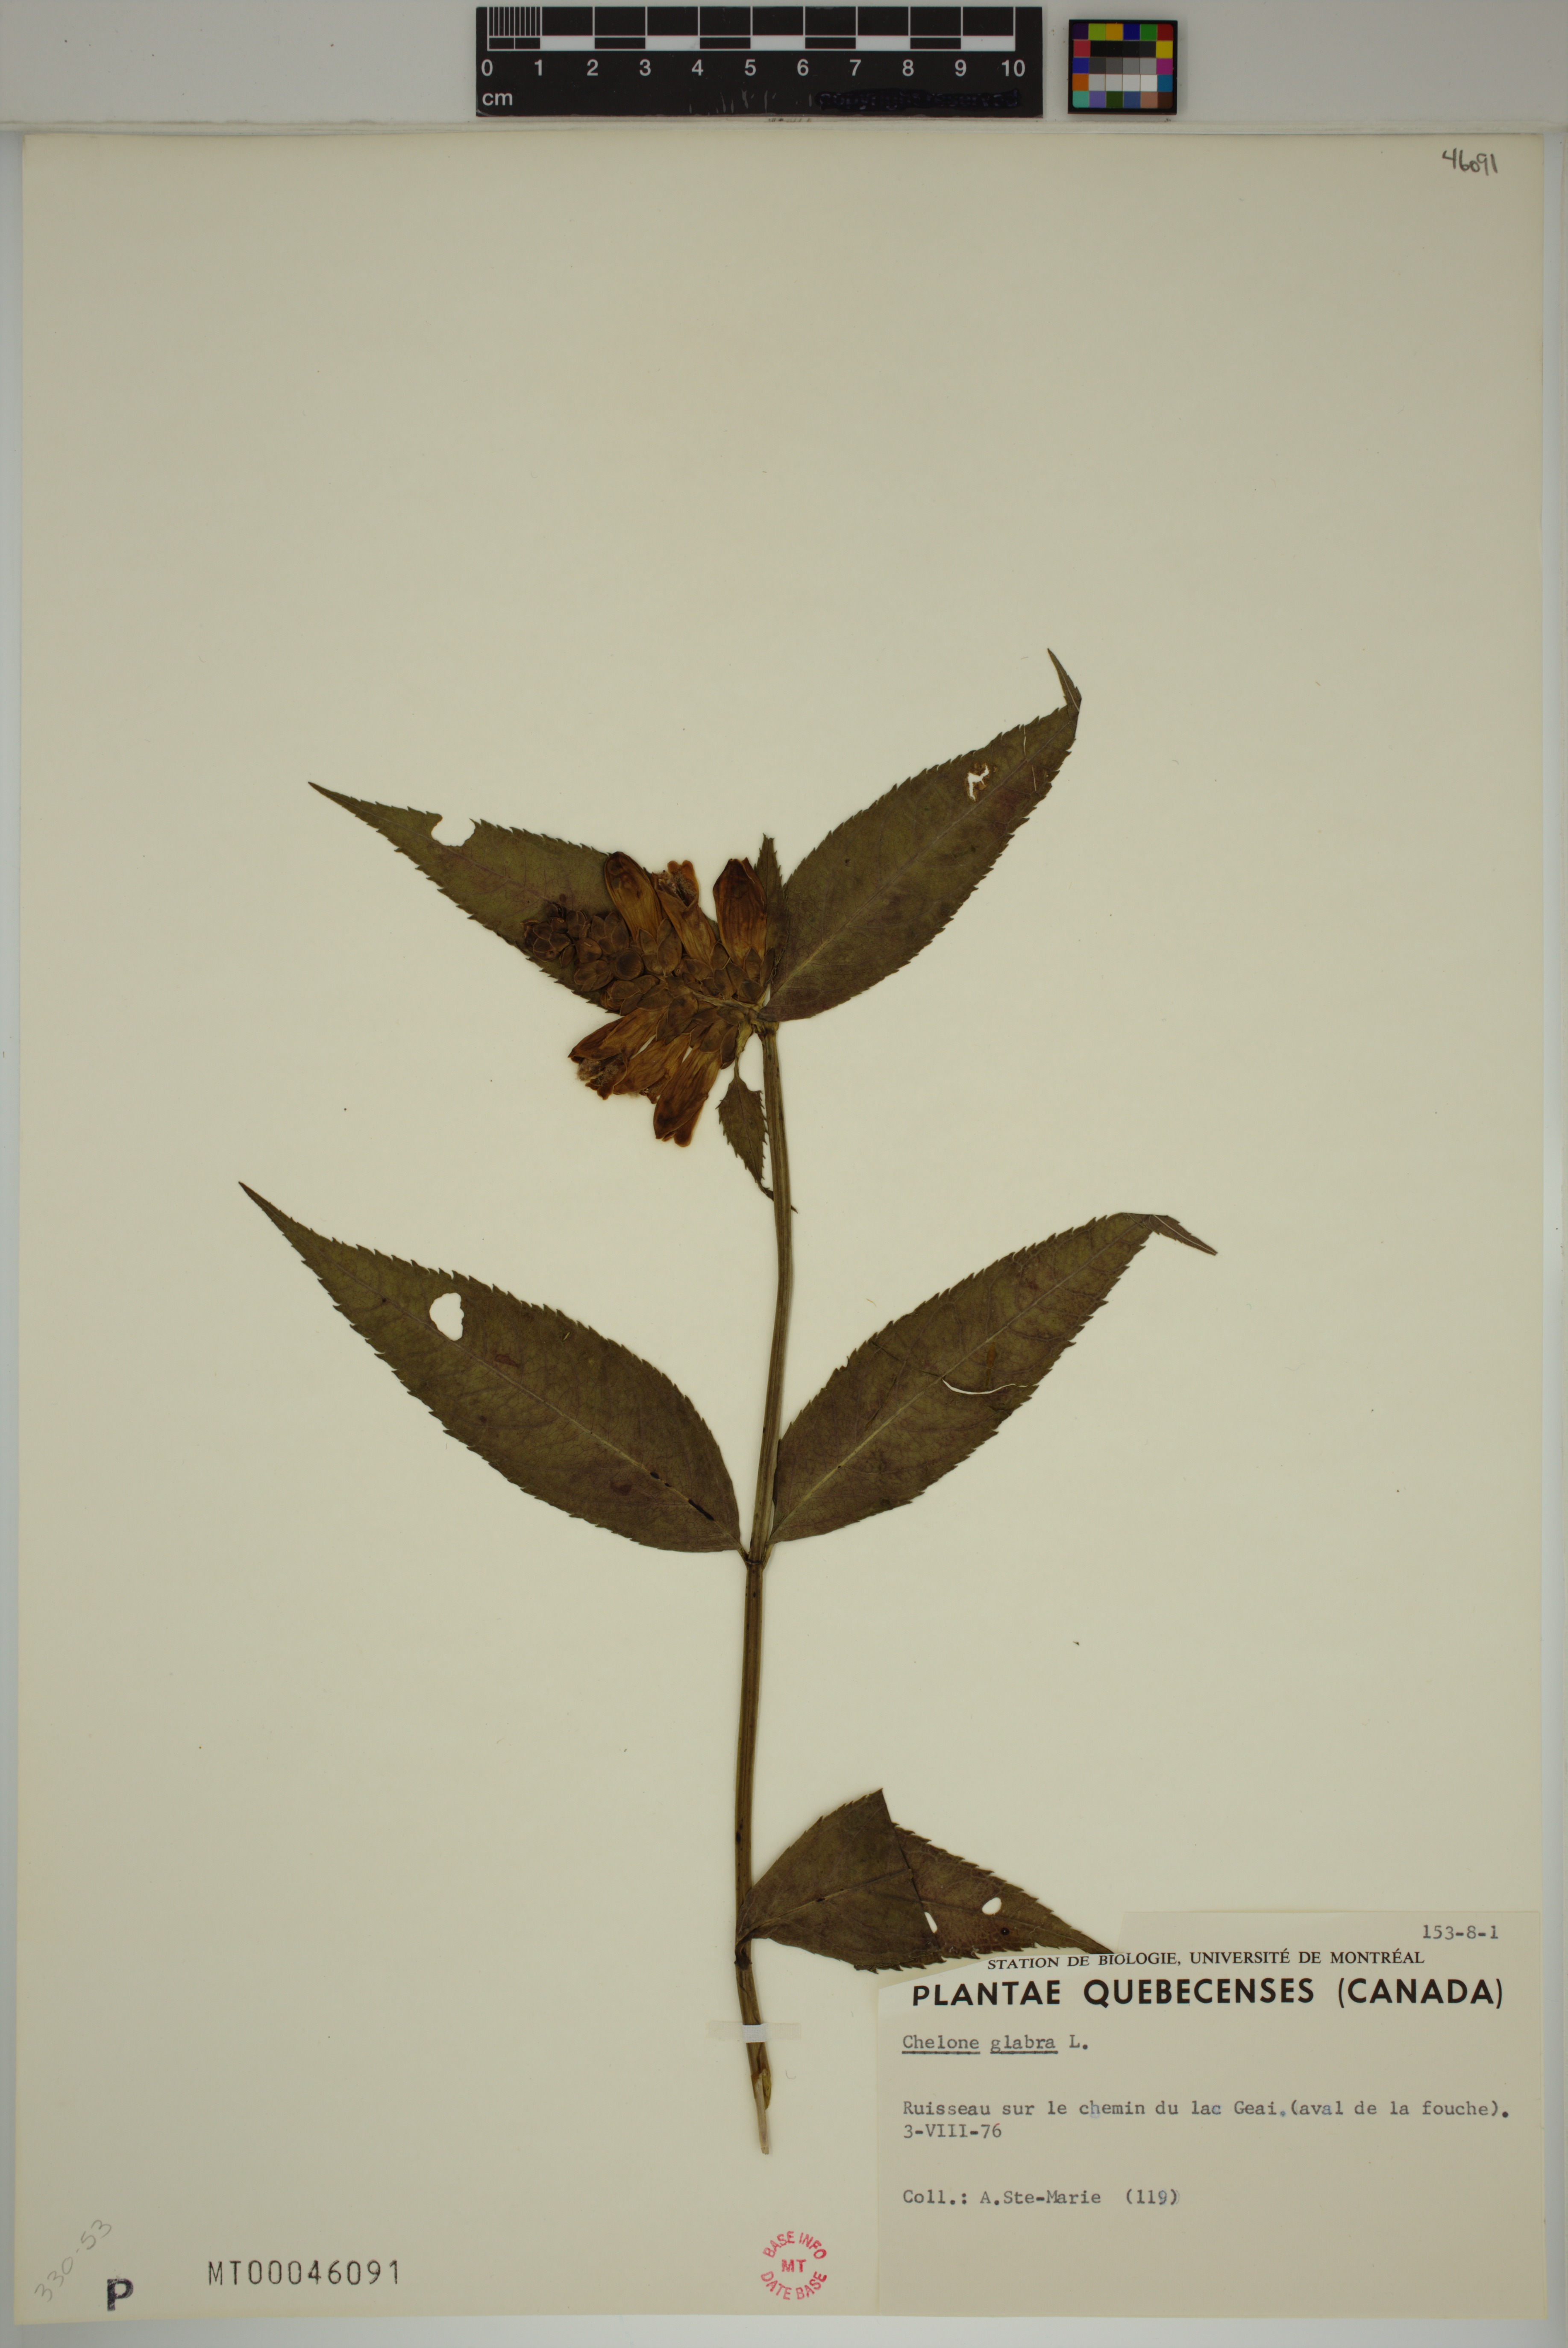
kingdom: Plantae
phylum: Tracheophyta
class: Magnoliopsida
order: Lamiales
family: Plantaginaceae
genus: Chelone
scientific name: Chelone glabra
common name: Snakehead
